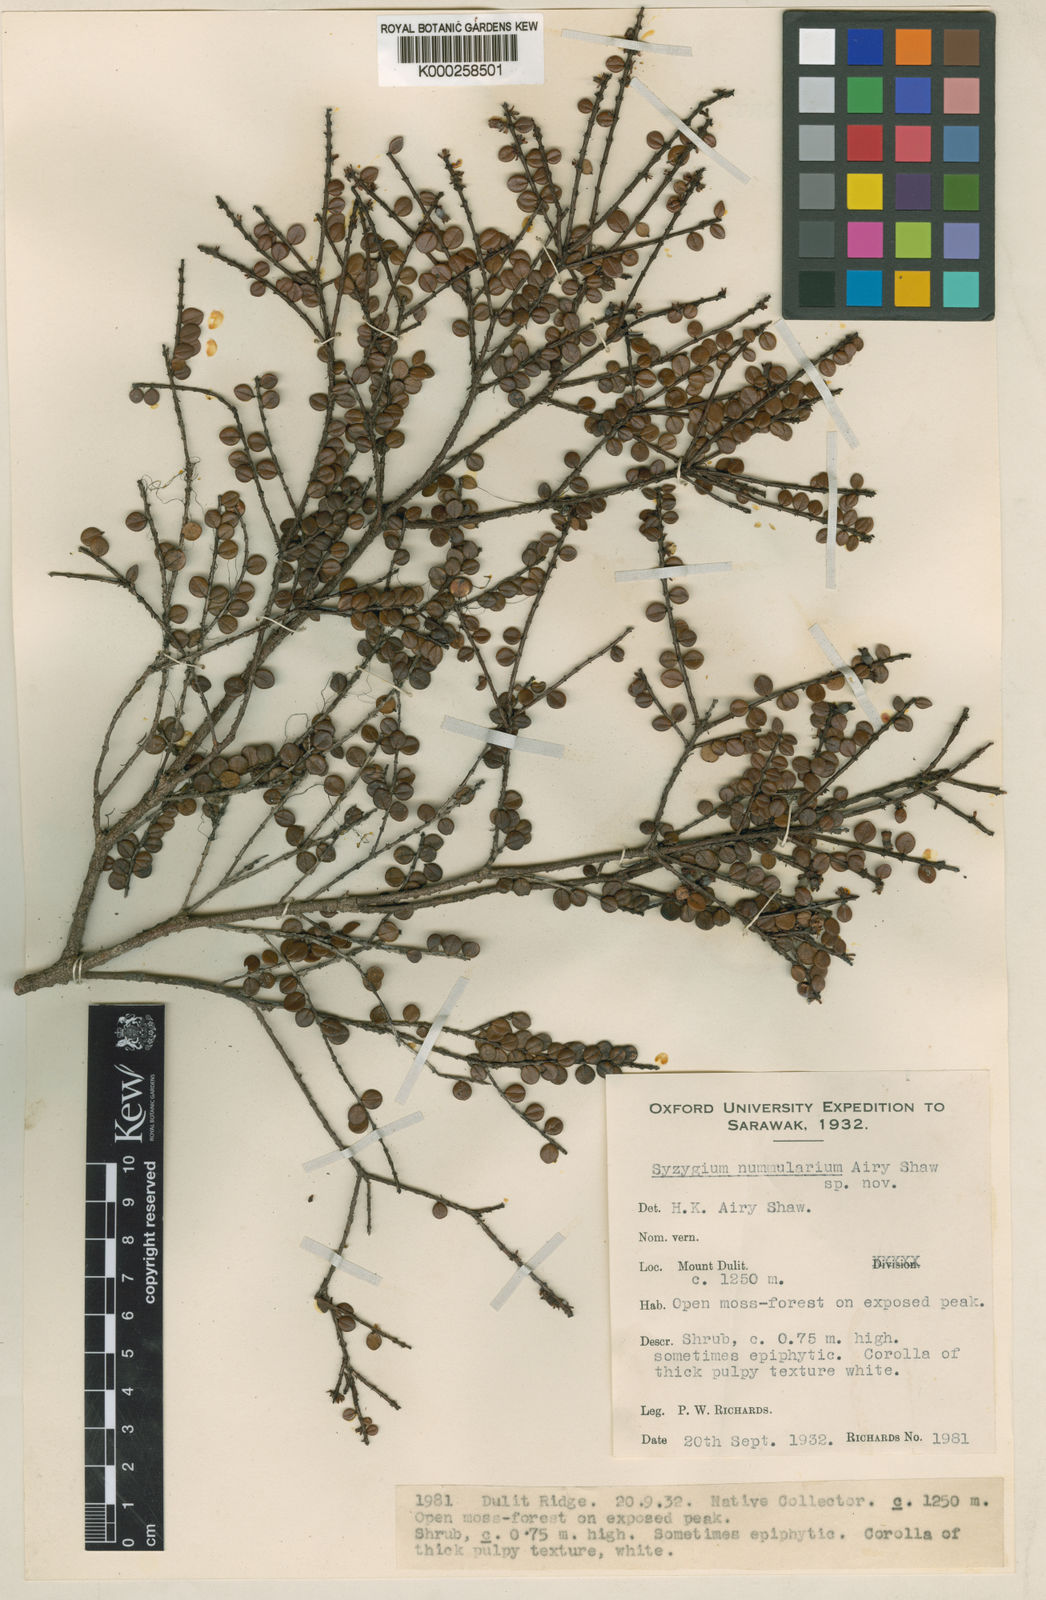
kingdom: Plantae
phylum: Tracheophyta
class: Magnoliopsida
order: Myrtales
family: Myrtaceae
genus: Syzygium
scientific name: Syzygium nummularium
